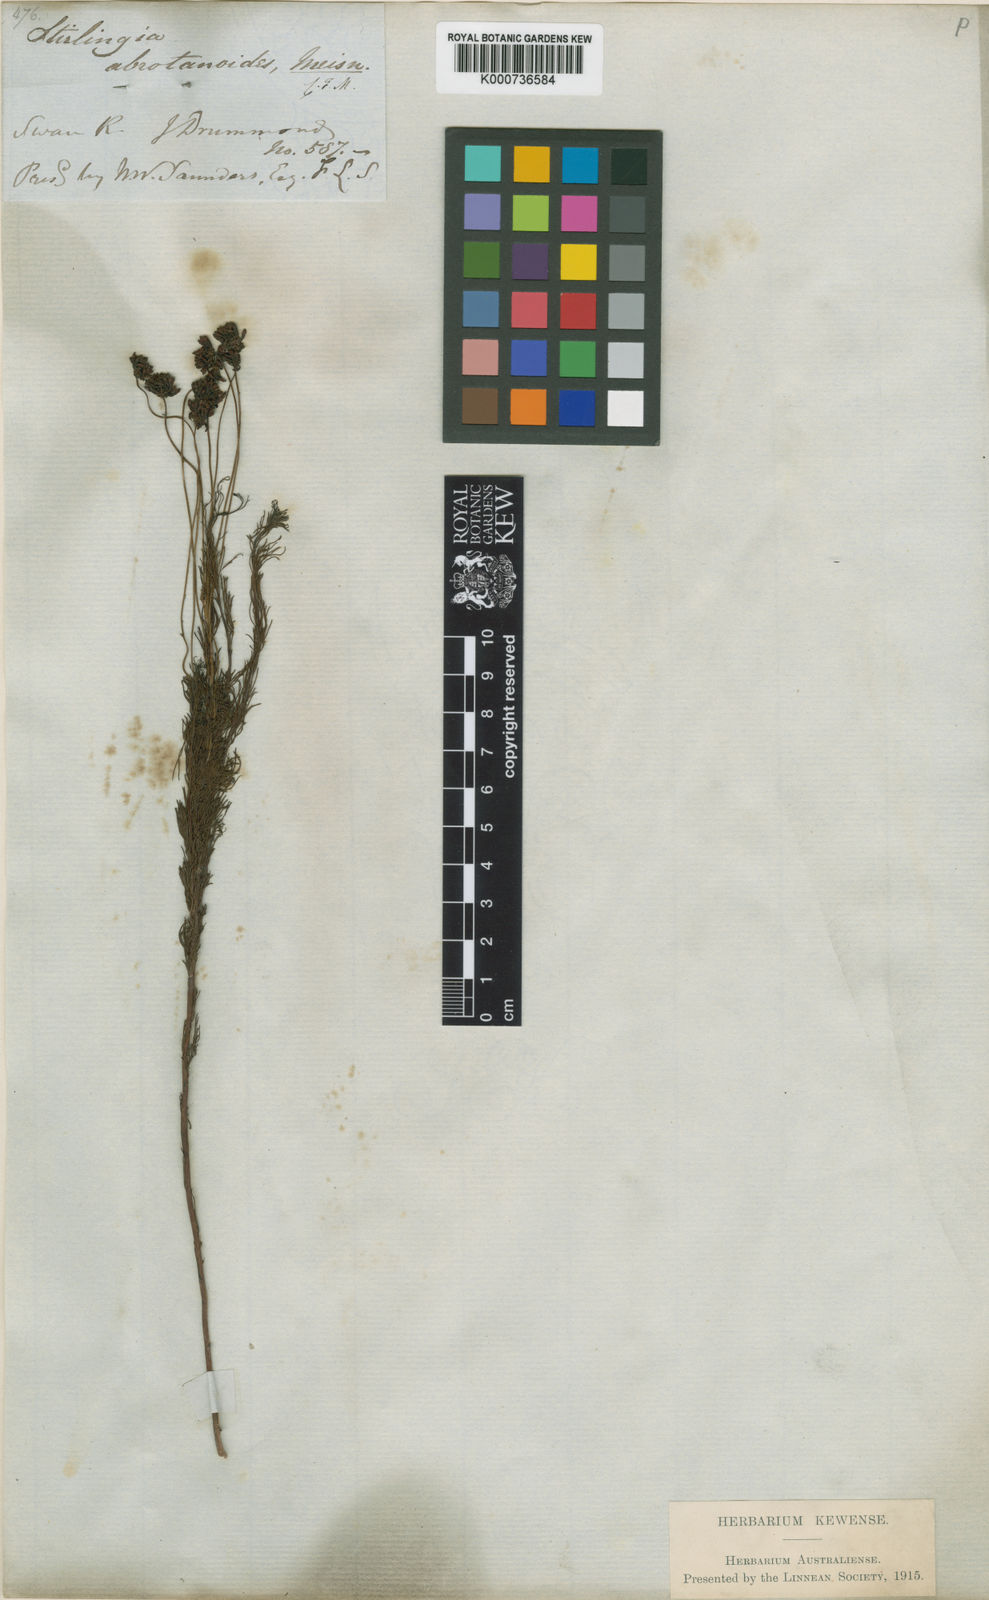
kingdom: Plantae
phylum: Tracheophyta
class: Magnoliopsida
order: Proteales
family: Proteaceae
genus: Stirlingia
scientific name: Stirlingia abrotanoides
